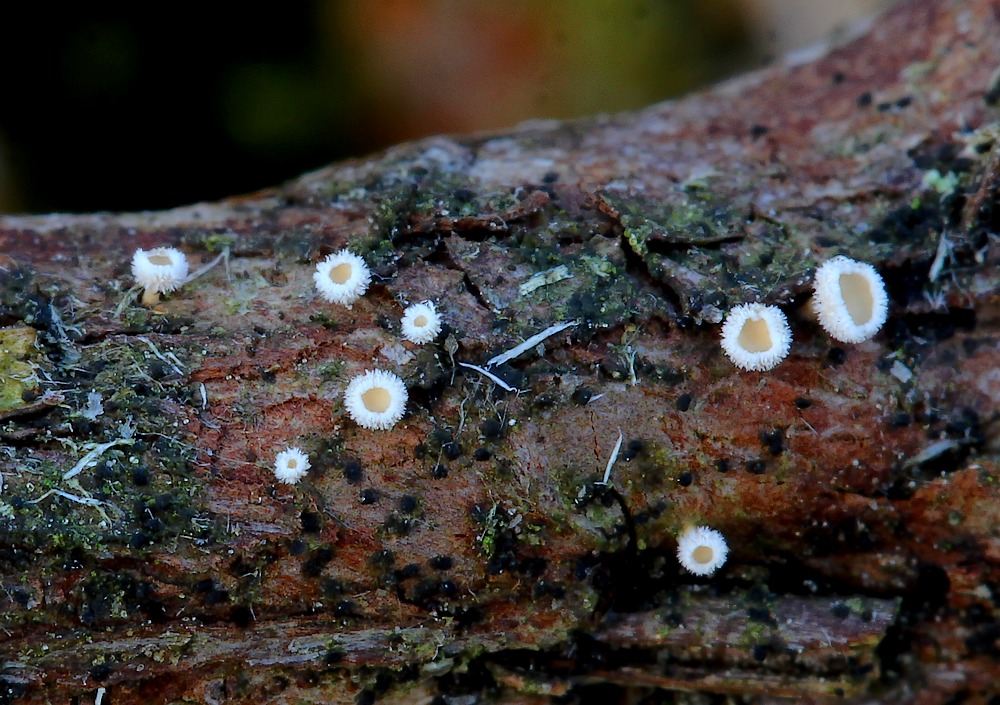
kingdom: Fungi
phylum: Ascomycota
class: Leotiomycetes
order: Helotiales
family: Lachnaceae
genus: Lachnum
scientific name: Lachnum
